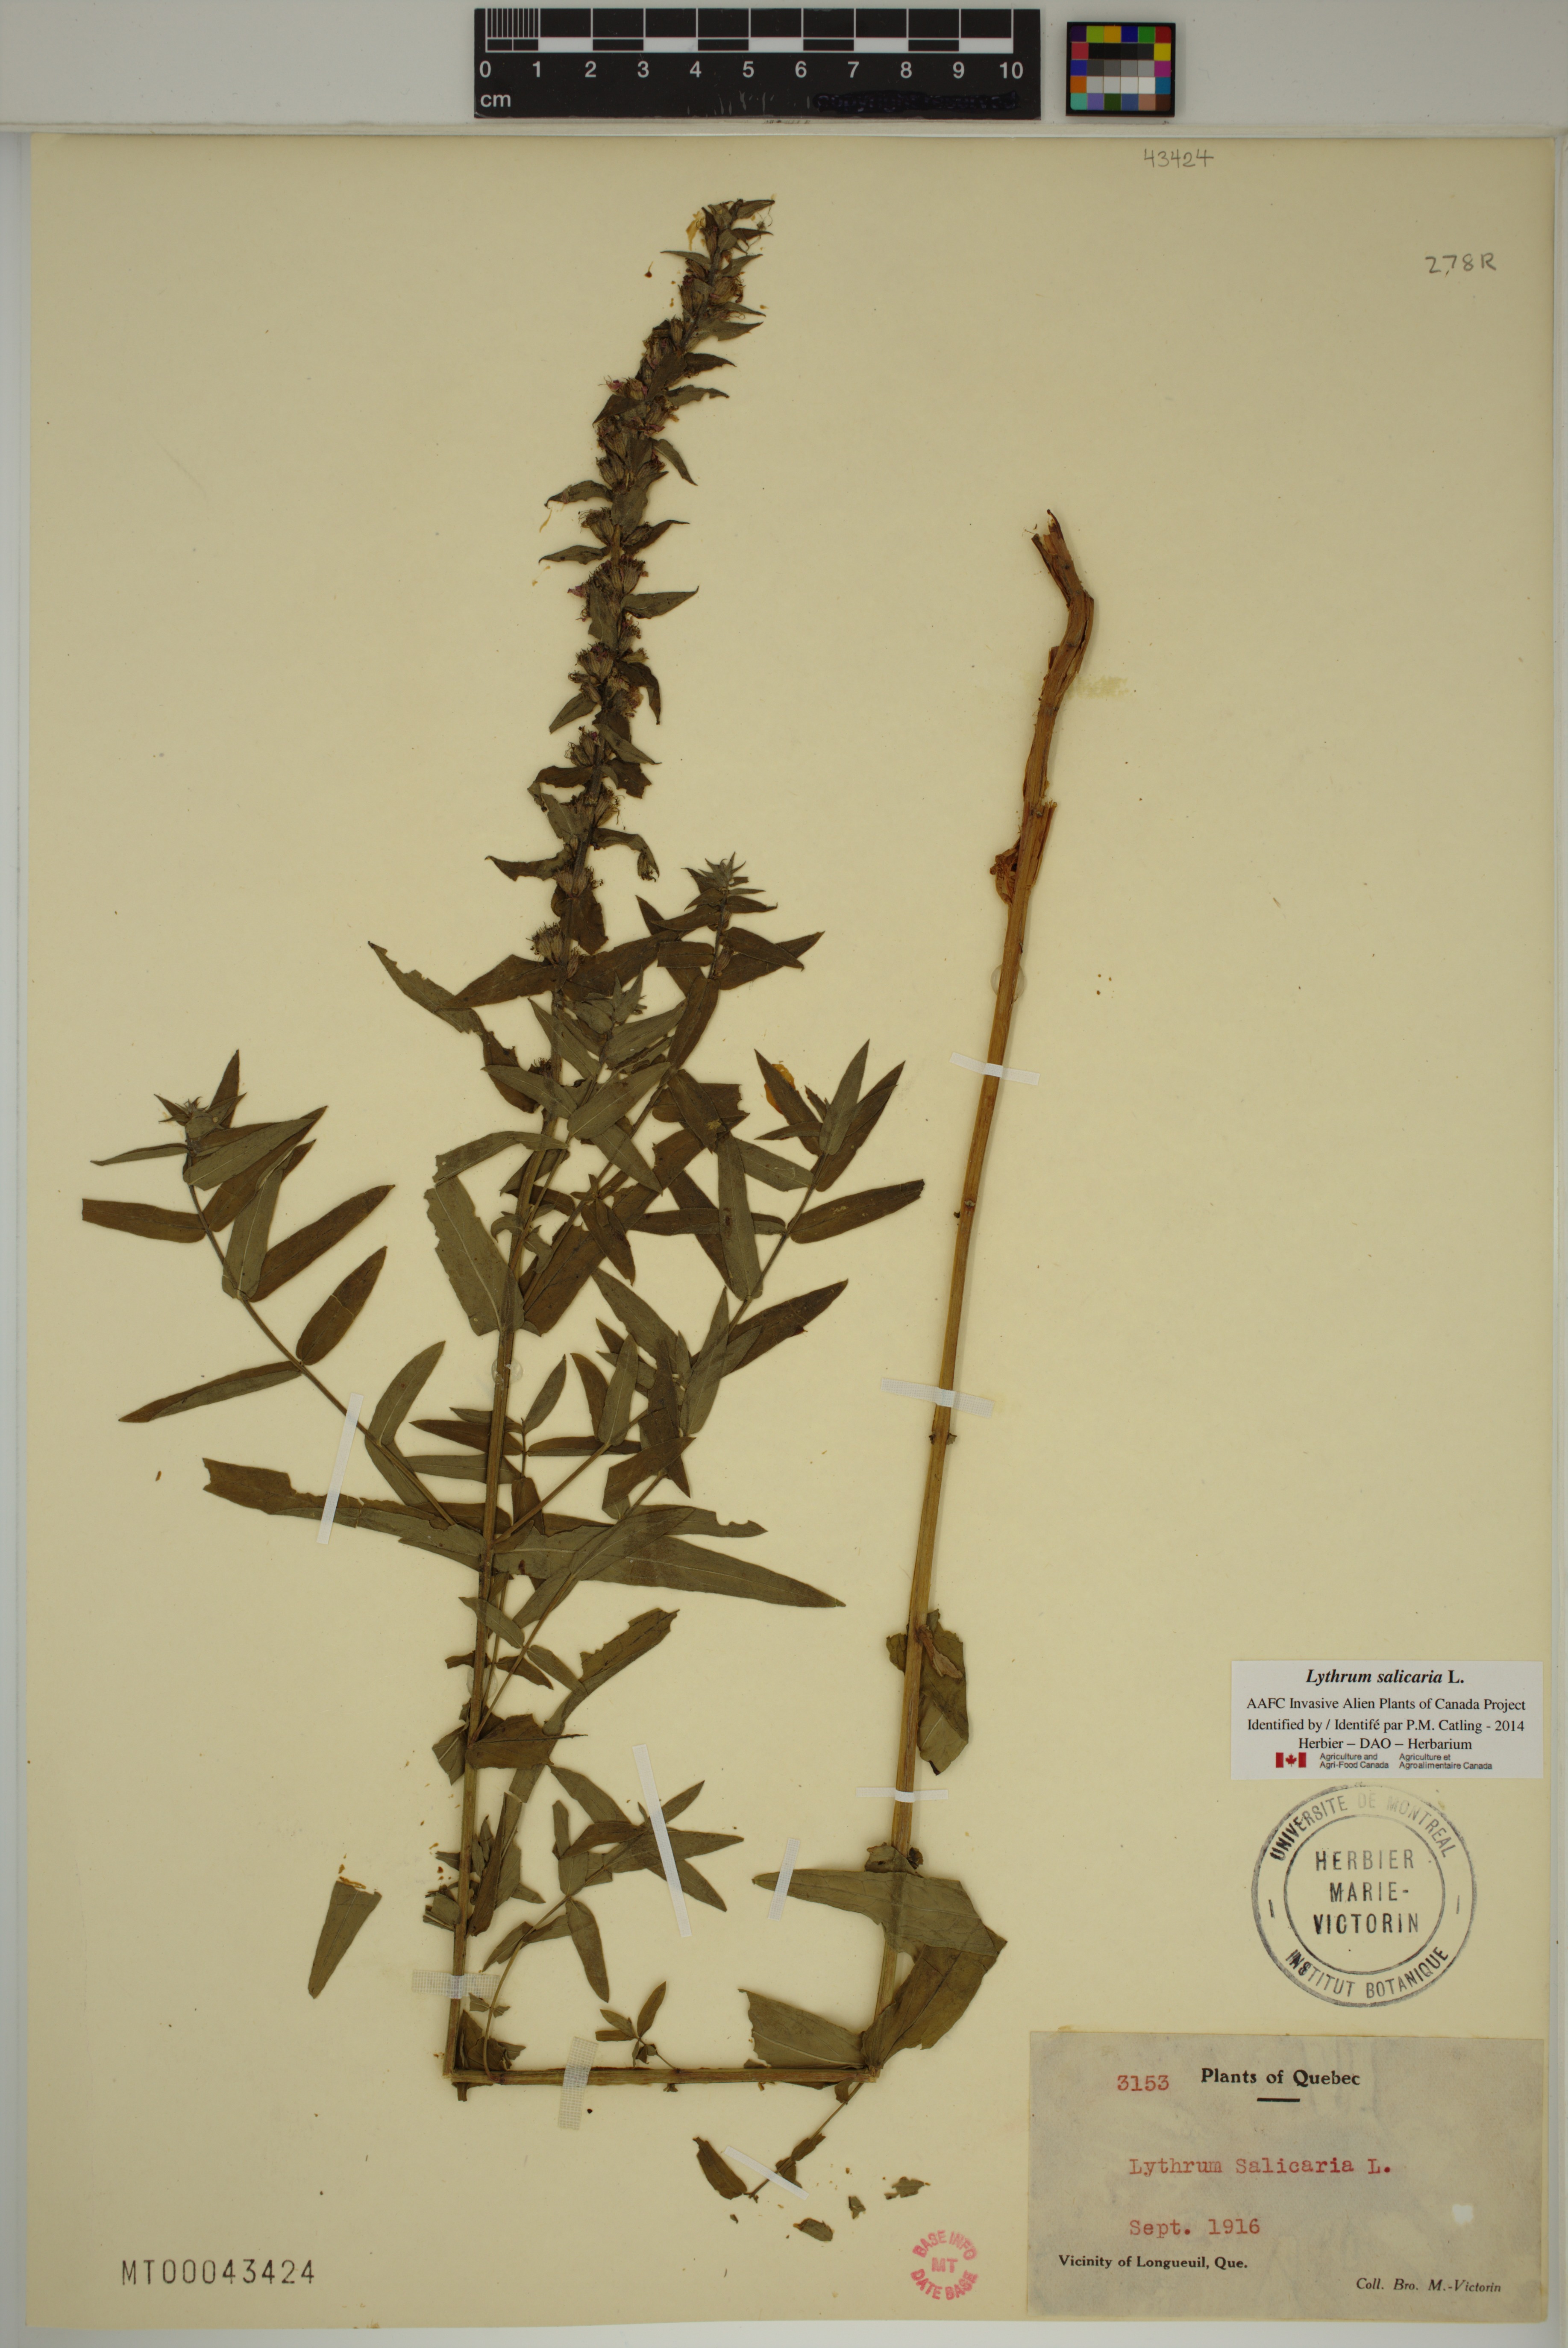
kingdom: Plantae
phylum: Tracheophyta
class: Magnoliopsida
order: Myrtales
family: Lythraceae
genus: Lythrum
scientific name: Lythrum salicaria
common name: Purple loosestrife
